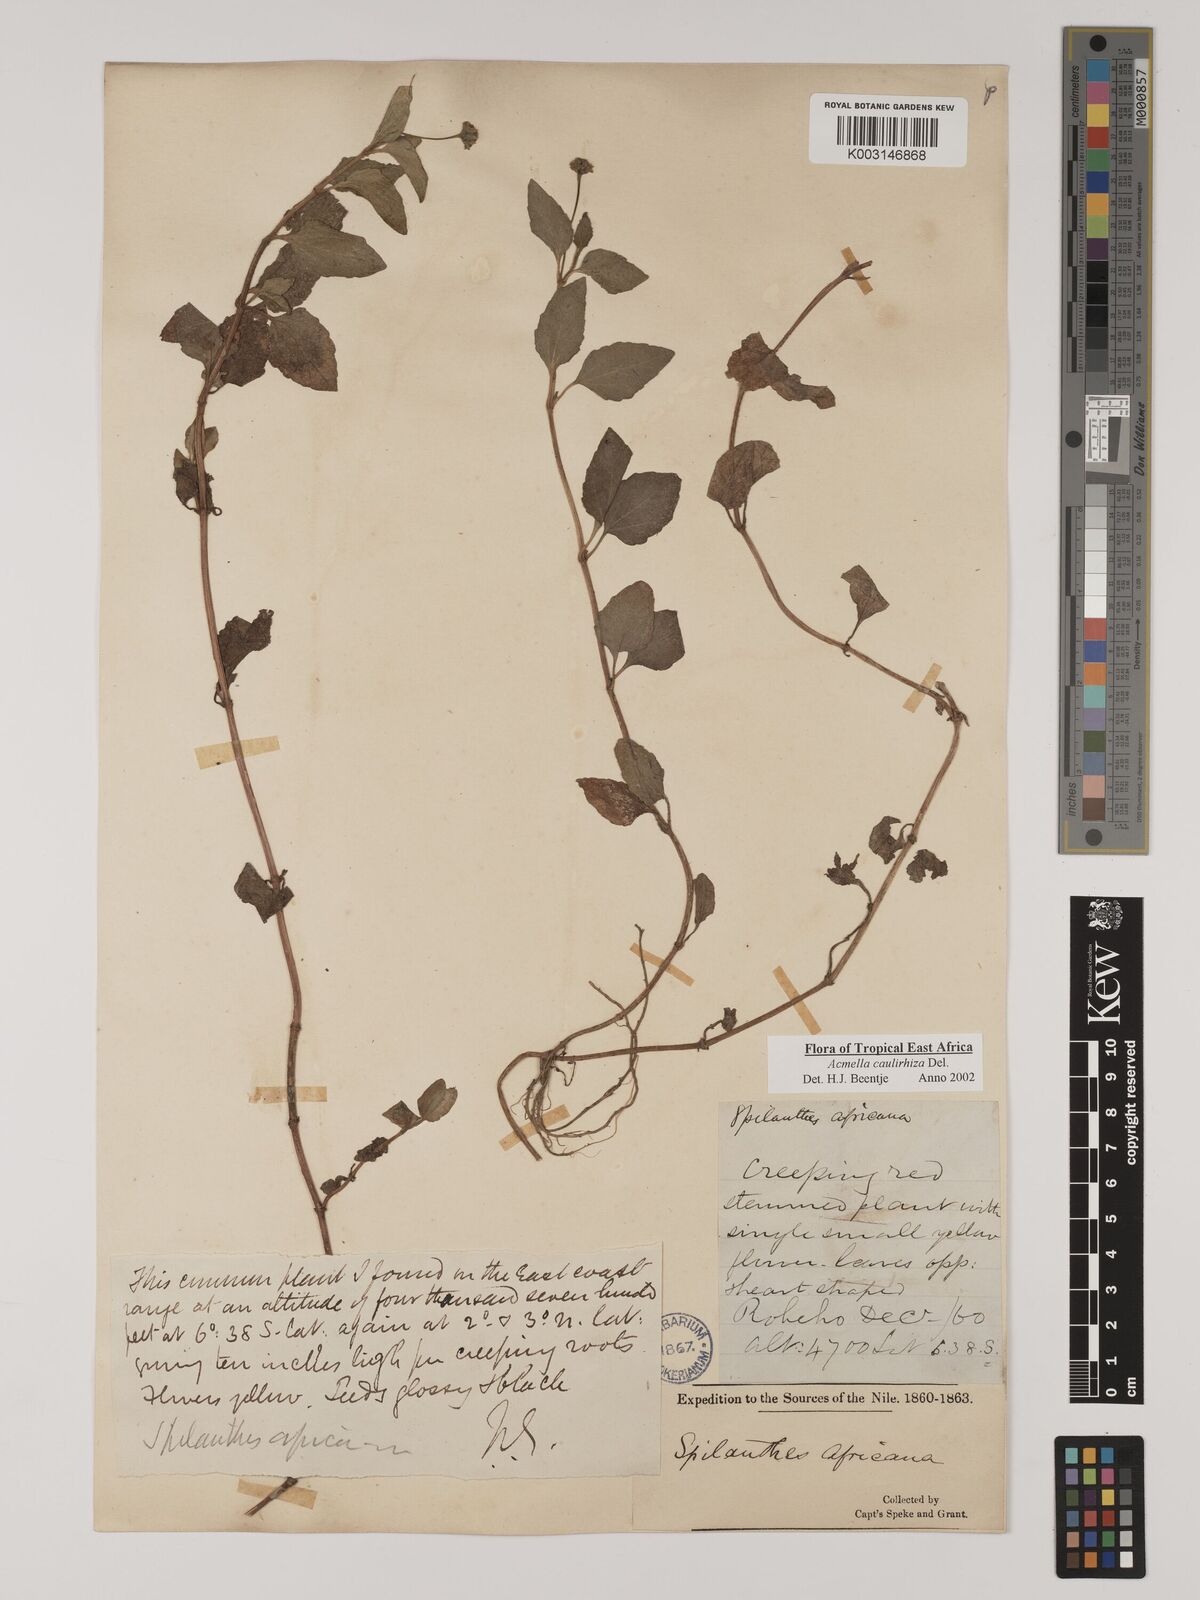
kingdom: Plantae
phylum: Tracheophyta
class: Magnoliopsida
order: Asterales
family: Asteraceae
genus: Acmella
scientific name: Acmella caulirhiza
